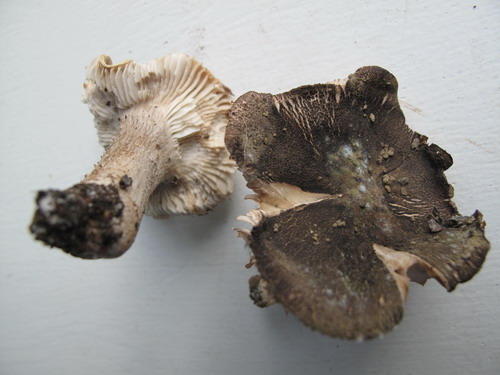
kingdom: Fungi
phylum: Basidiomycota
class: Agaricomycetes
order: Agaricales
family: Tricholomataceae
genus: Tricholoma
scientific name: Tricholoma orirubens
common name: rødbladet ridderhat
